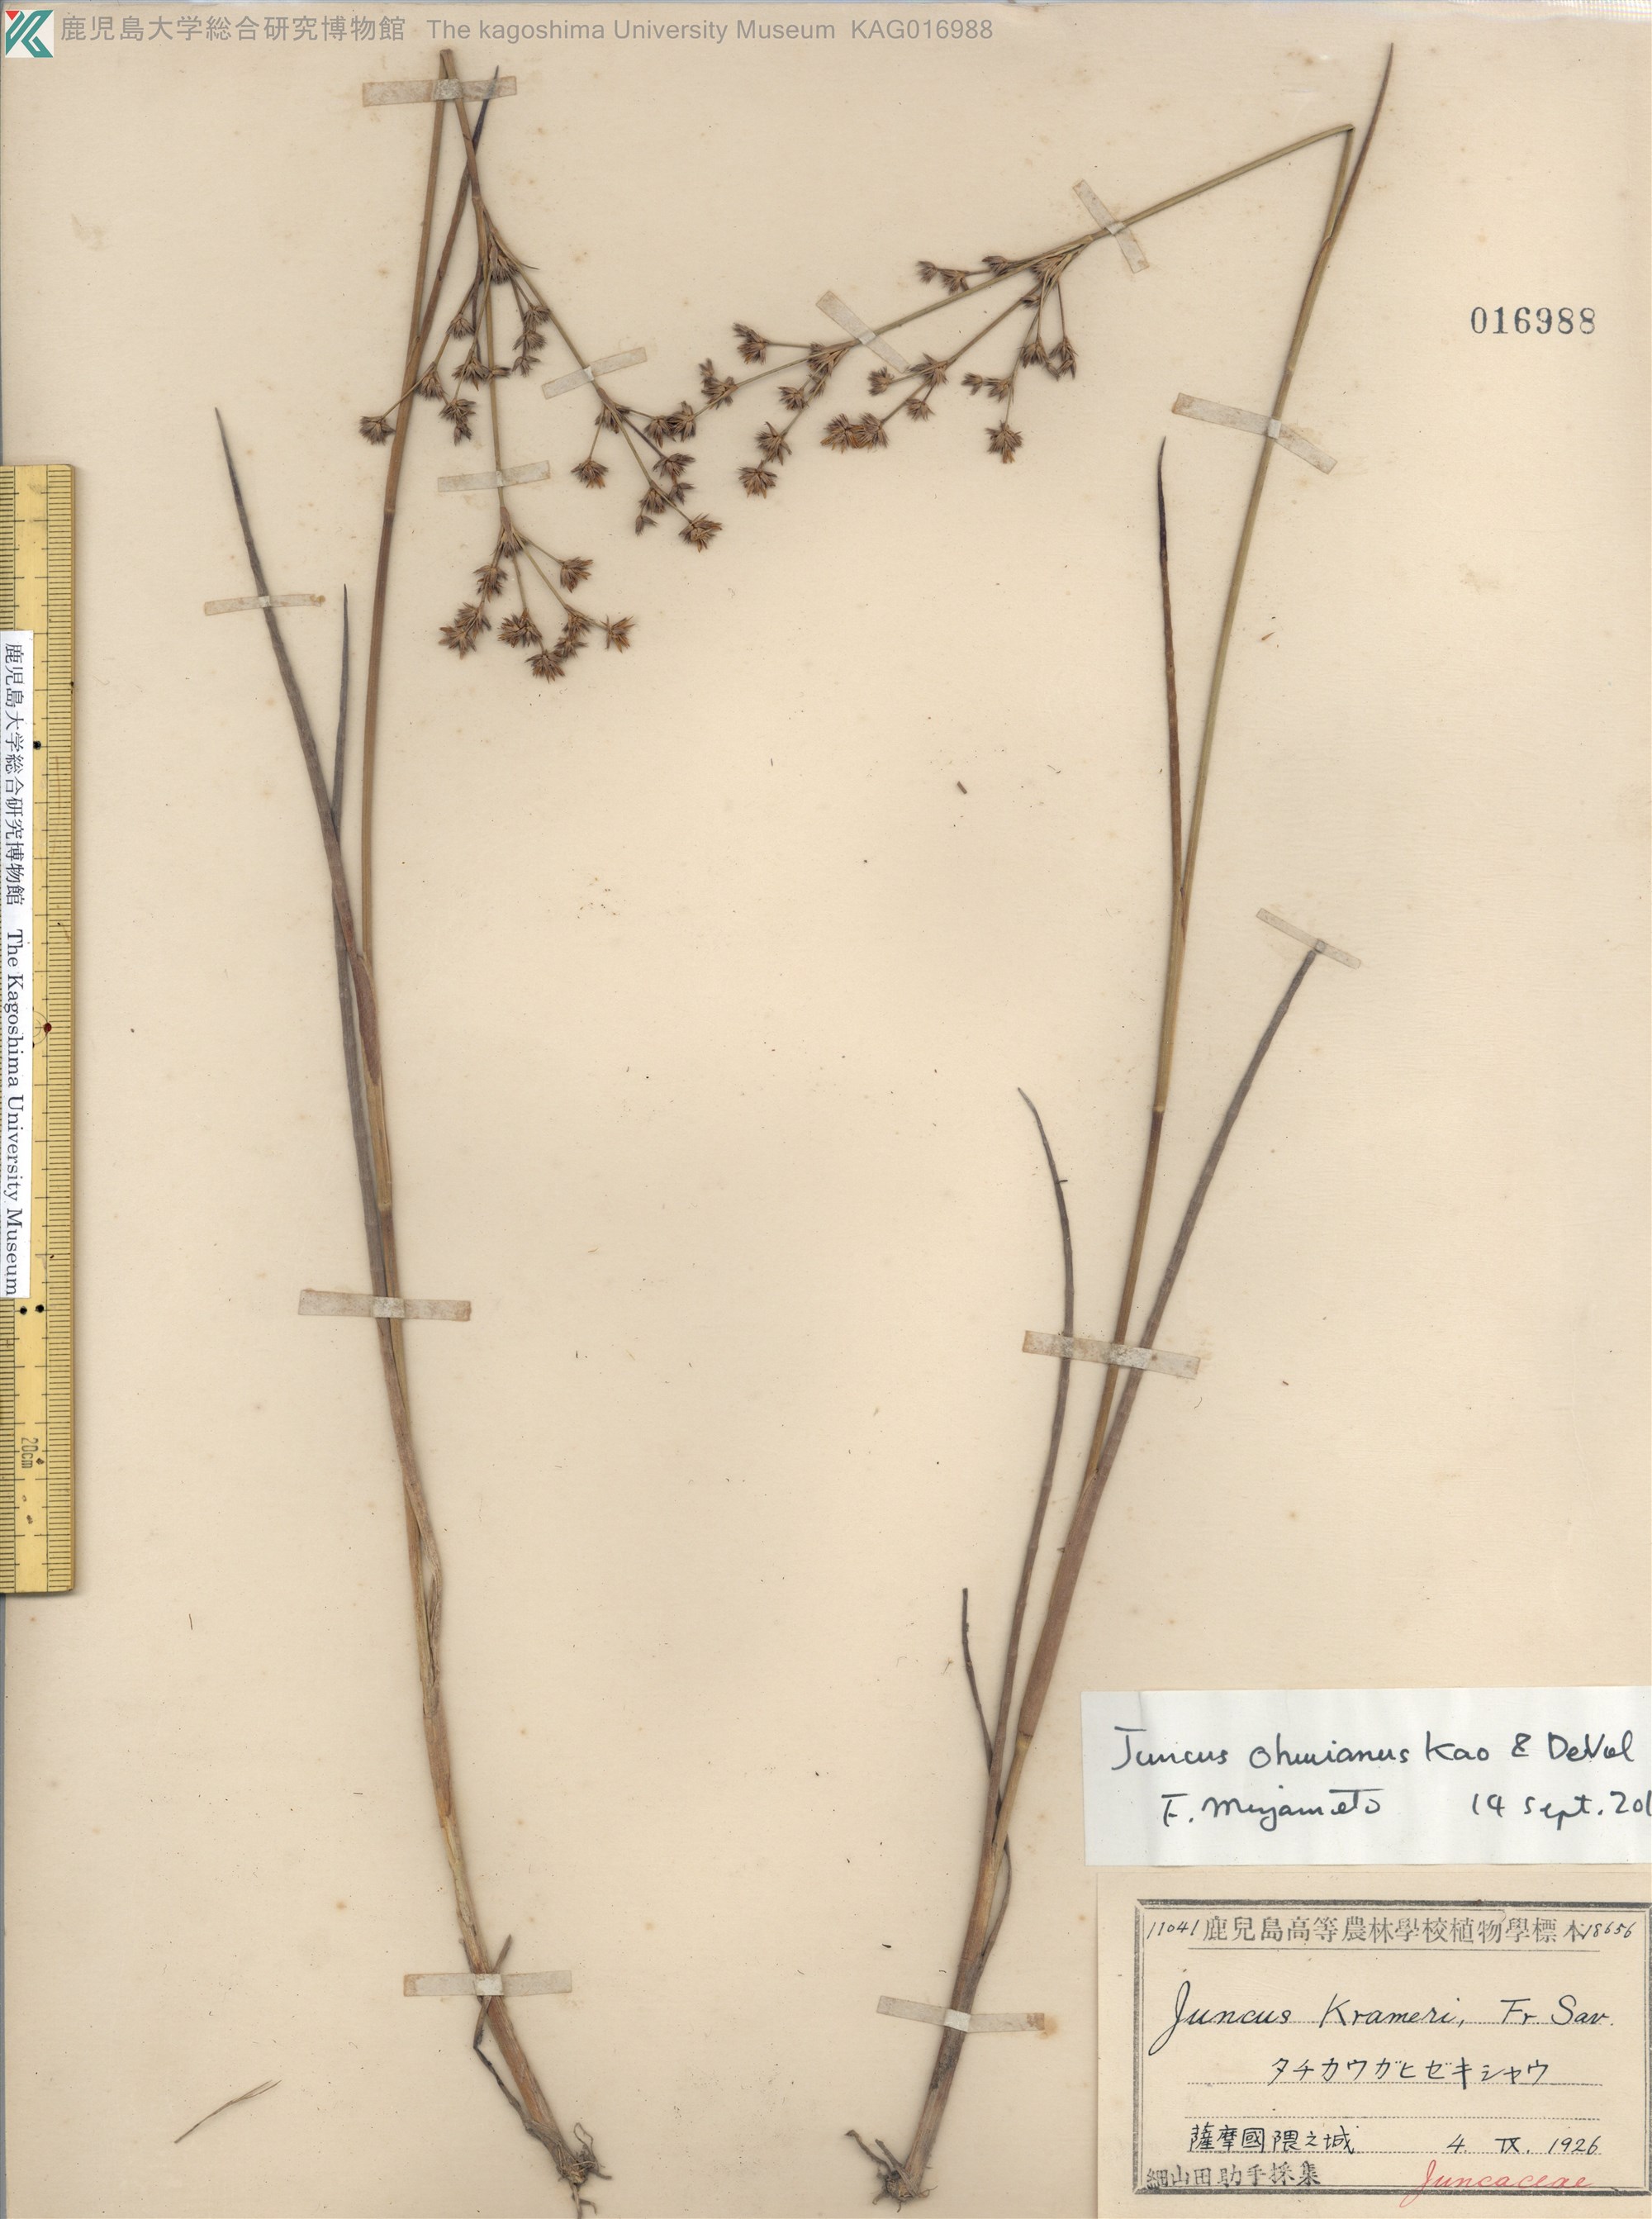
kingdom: Plantae
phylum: Tracheophyta
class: Liliopsida
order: Poales
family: Juncaceae
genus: Juncus
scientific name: Juncus wallichianus
